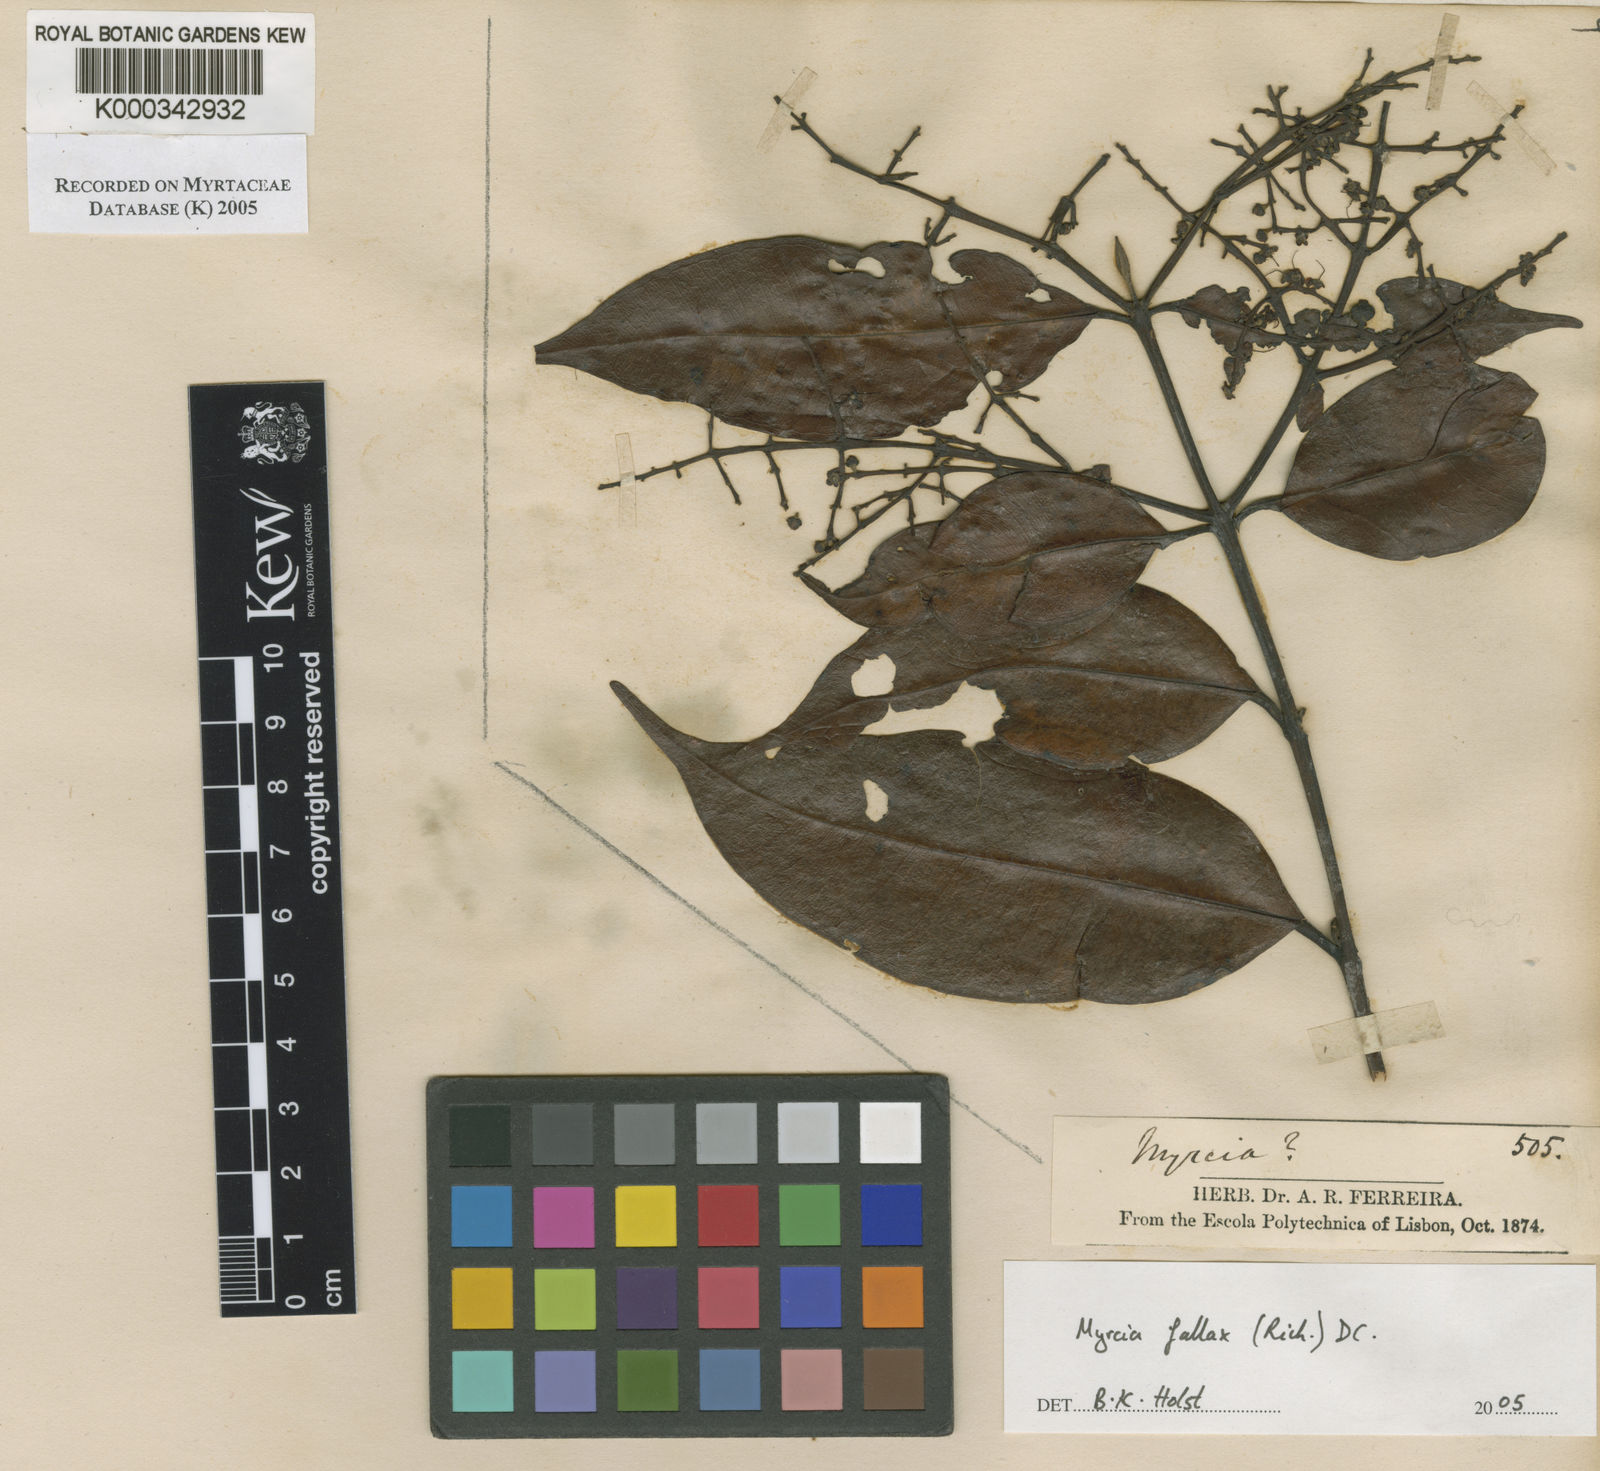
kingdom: Plantae
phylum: Tracheophyta
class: Magnoliopsida
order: Myrtales
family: Myrtaceae
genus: Myrcia
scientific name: Myrcia splendens
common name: Surinam cherry
